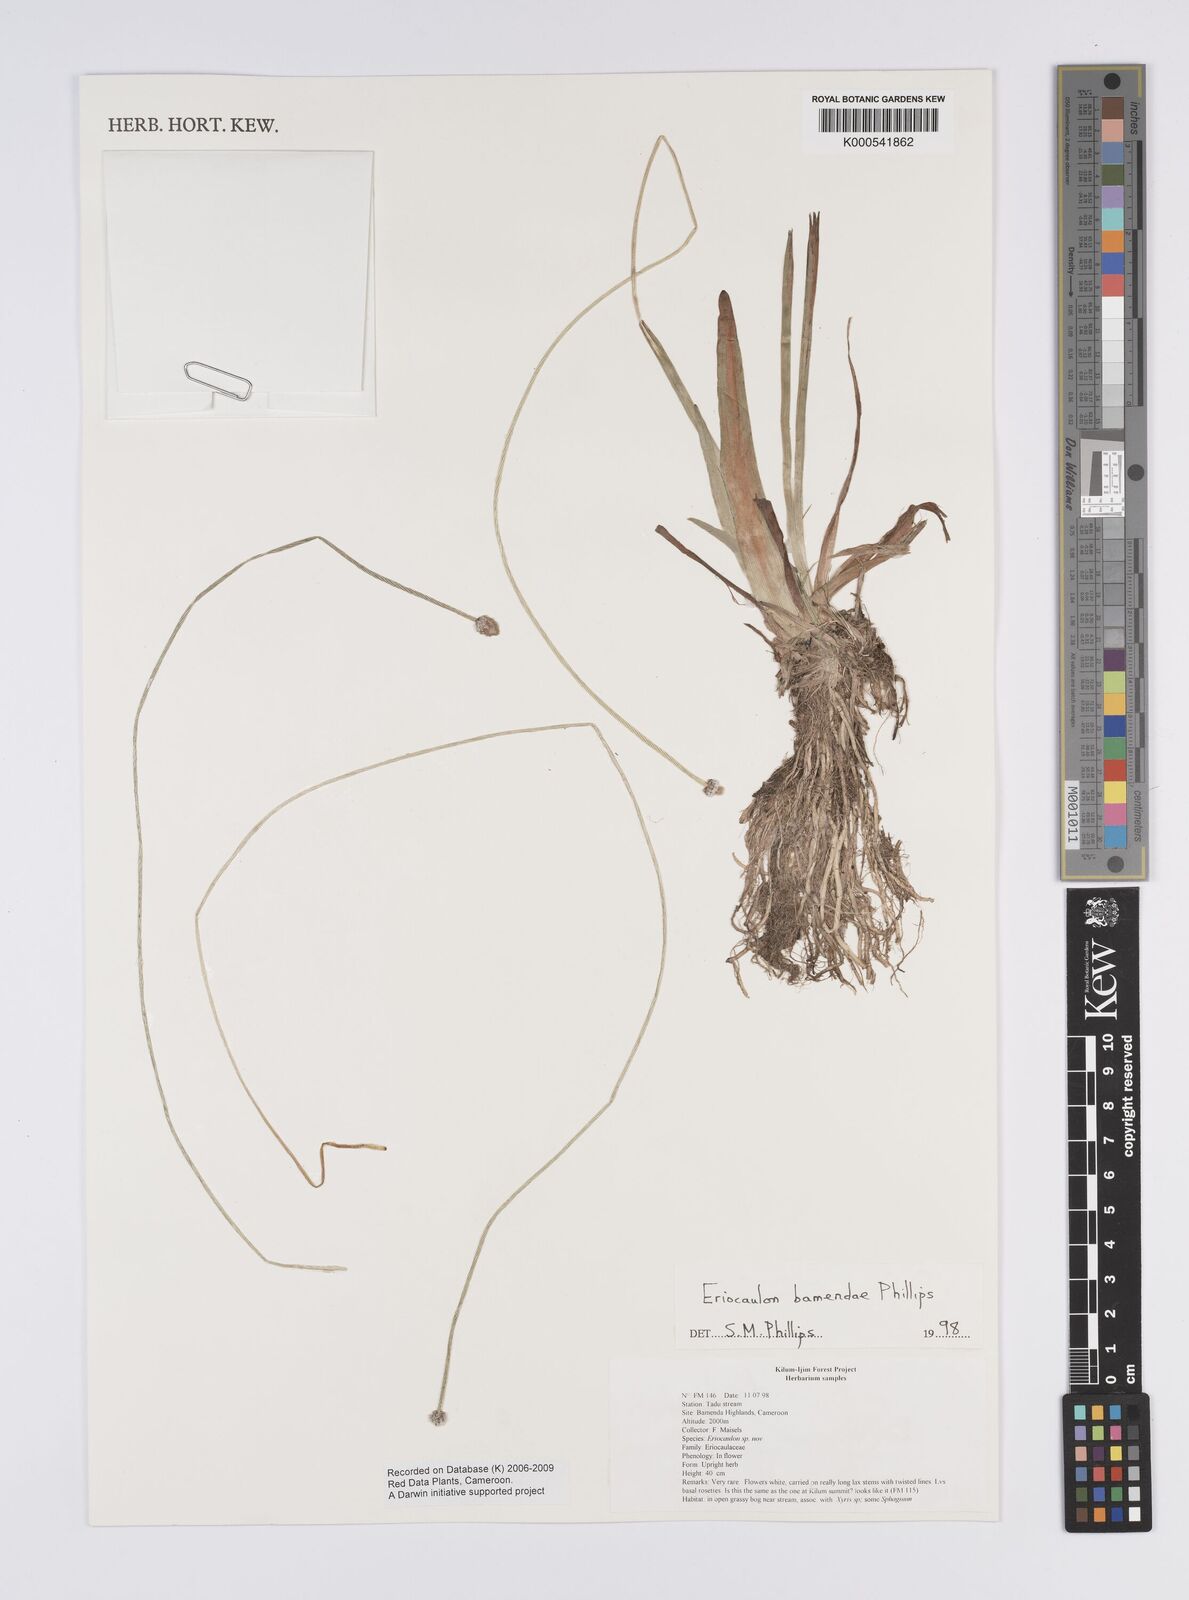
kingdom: Plantae
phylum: Tracheophyta
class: Liliopsida
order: Poales
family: Eriocaulaceae
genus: Eriocaulon
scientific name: Eriocaulon bamendae
